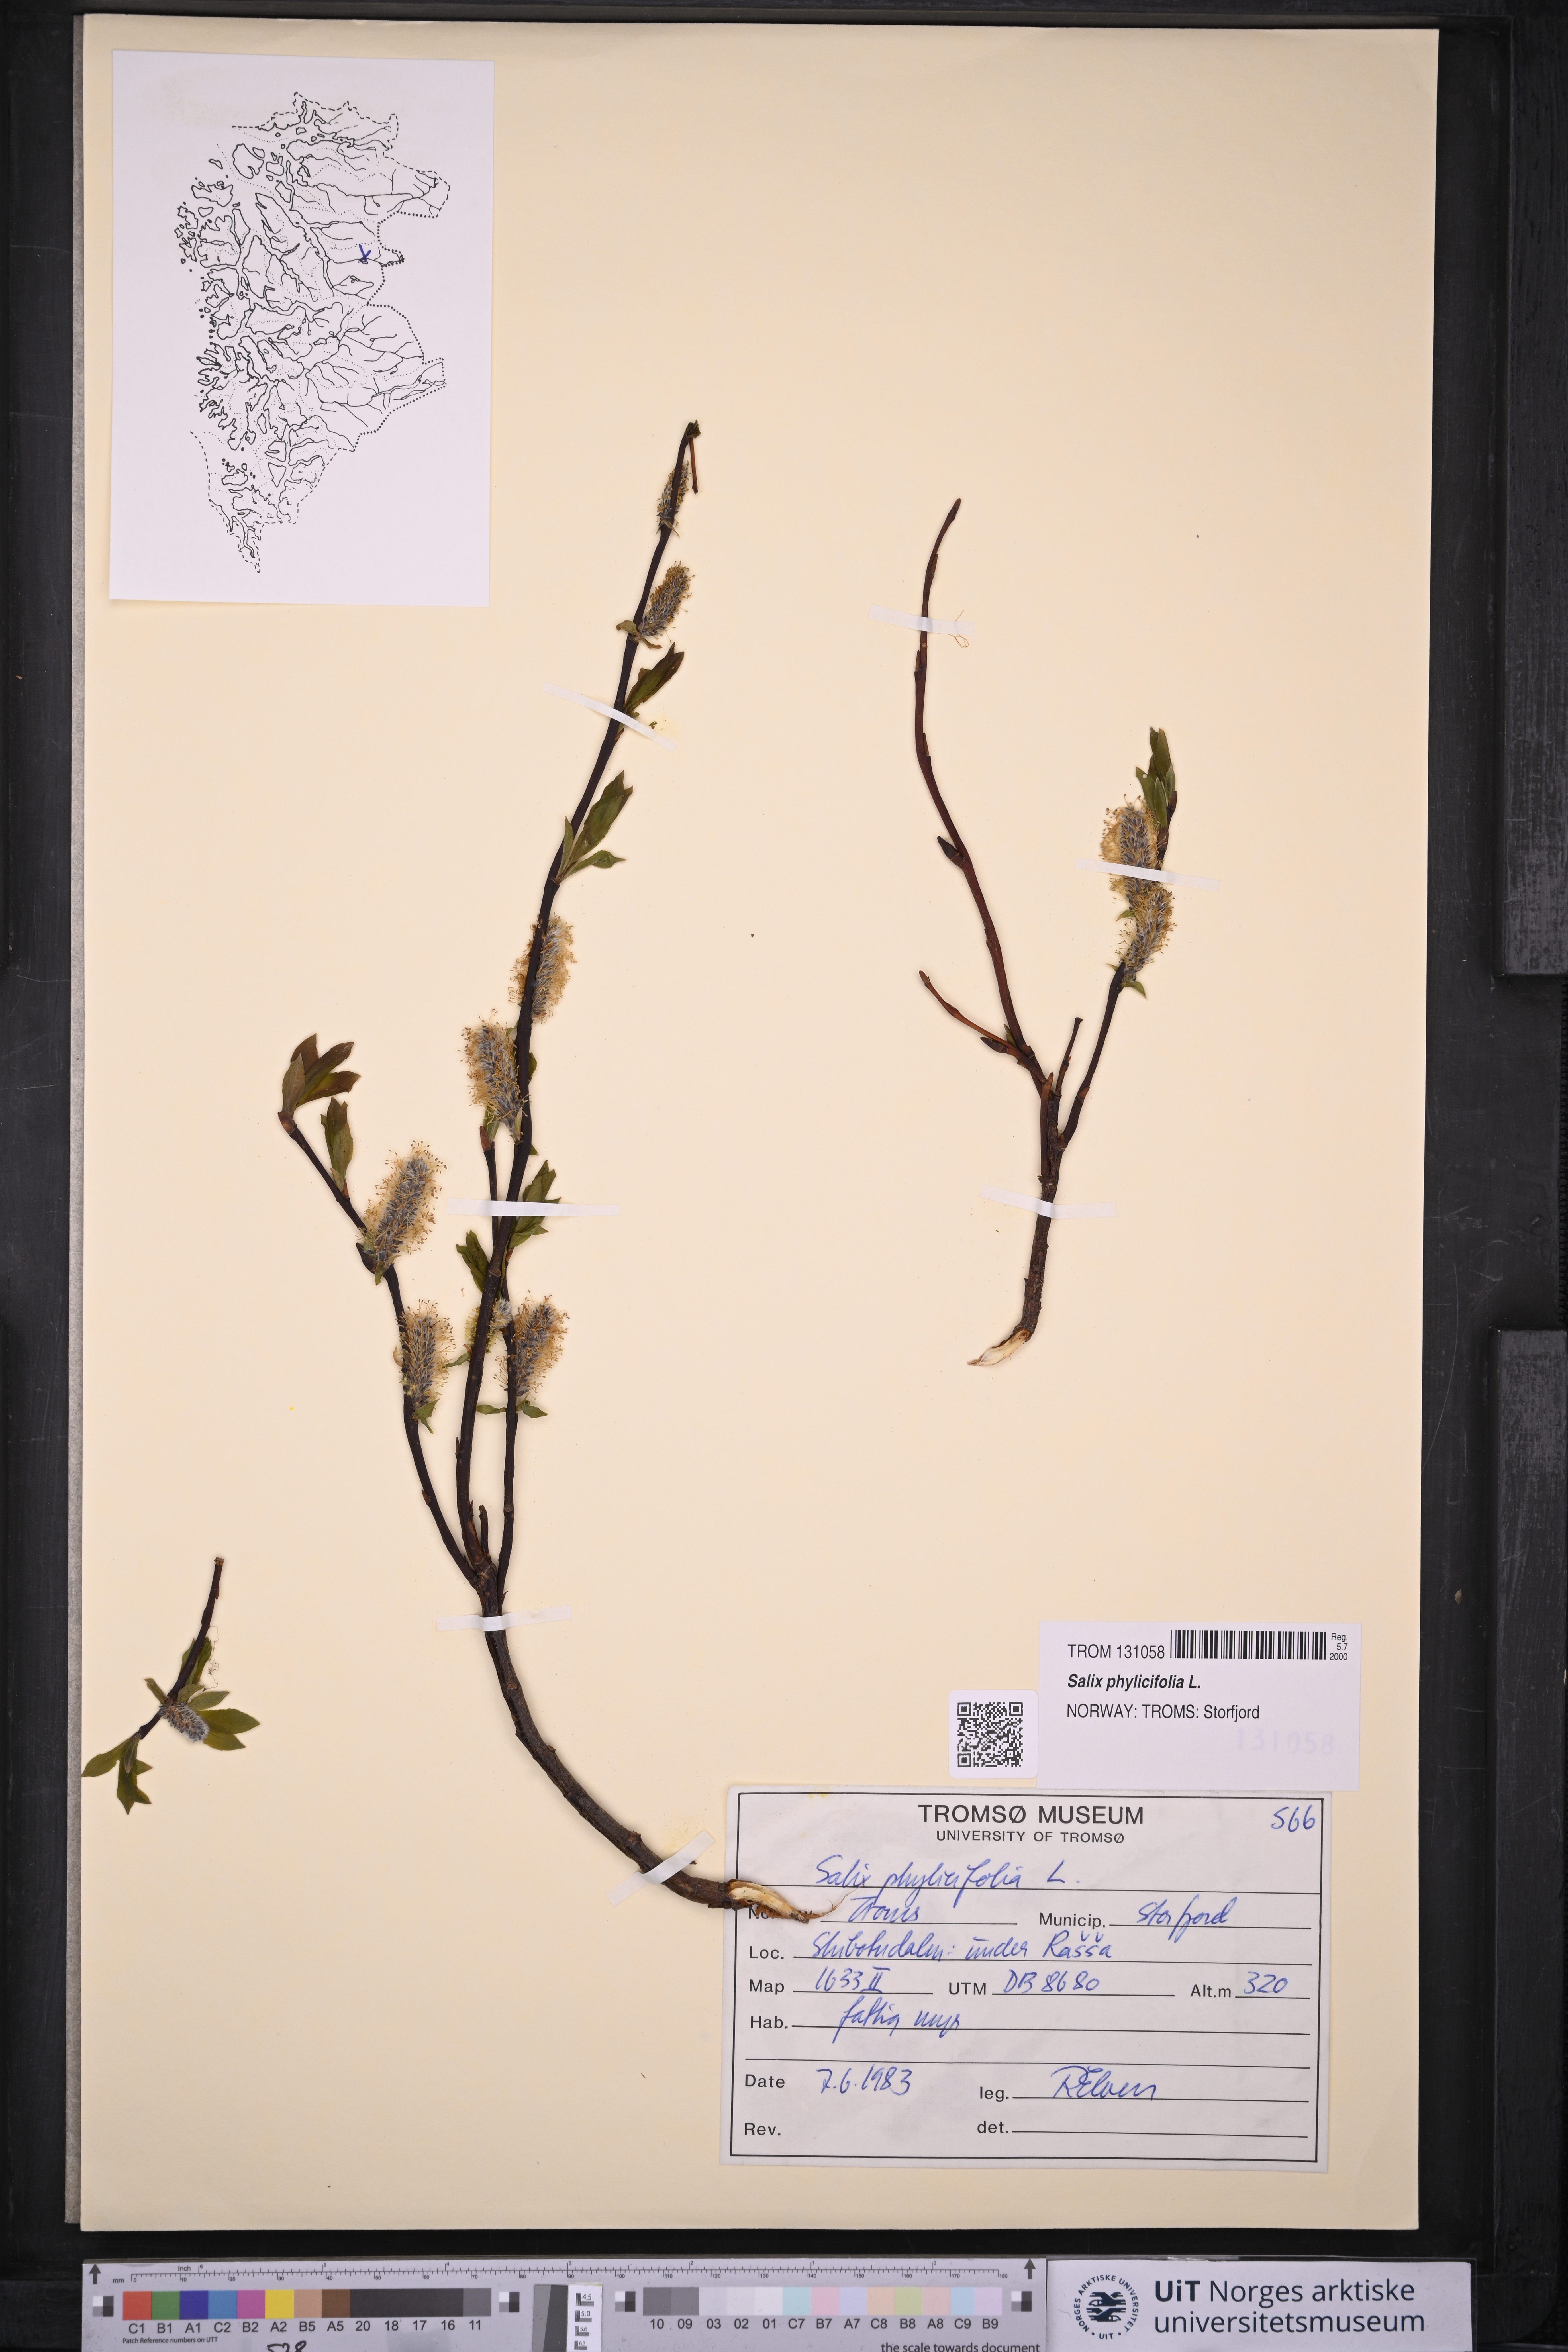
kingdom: Plantae
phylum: Tracheophyta
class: Magnoliopsida
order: Malpighiales
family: Salicaceae
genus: Salix
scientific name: Salix phylicifolia
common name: Tea-leaved willow
